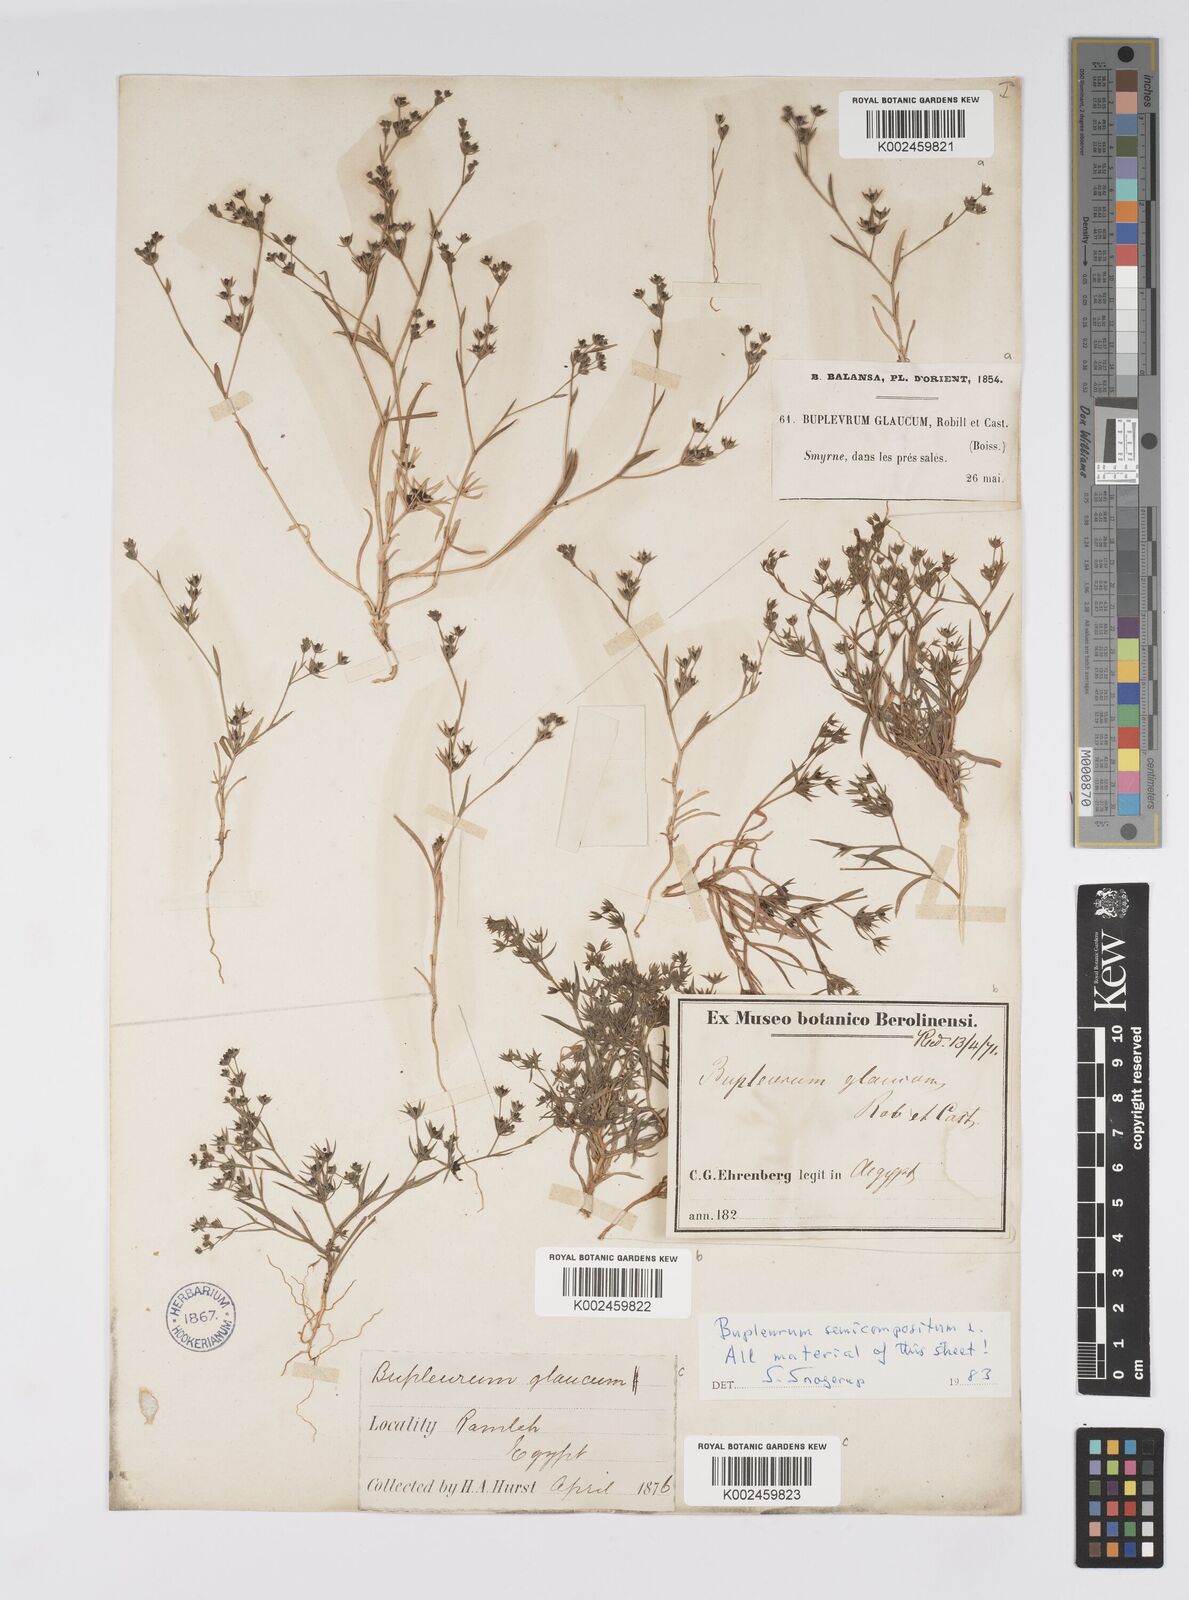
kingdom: Plantae
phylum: Tracheophyta
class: Magnoliopsida
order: Apiales
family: Apiaceae
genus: Bupleurum
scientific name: Bupleurum semicompositum
